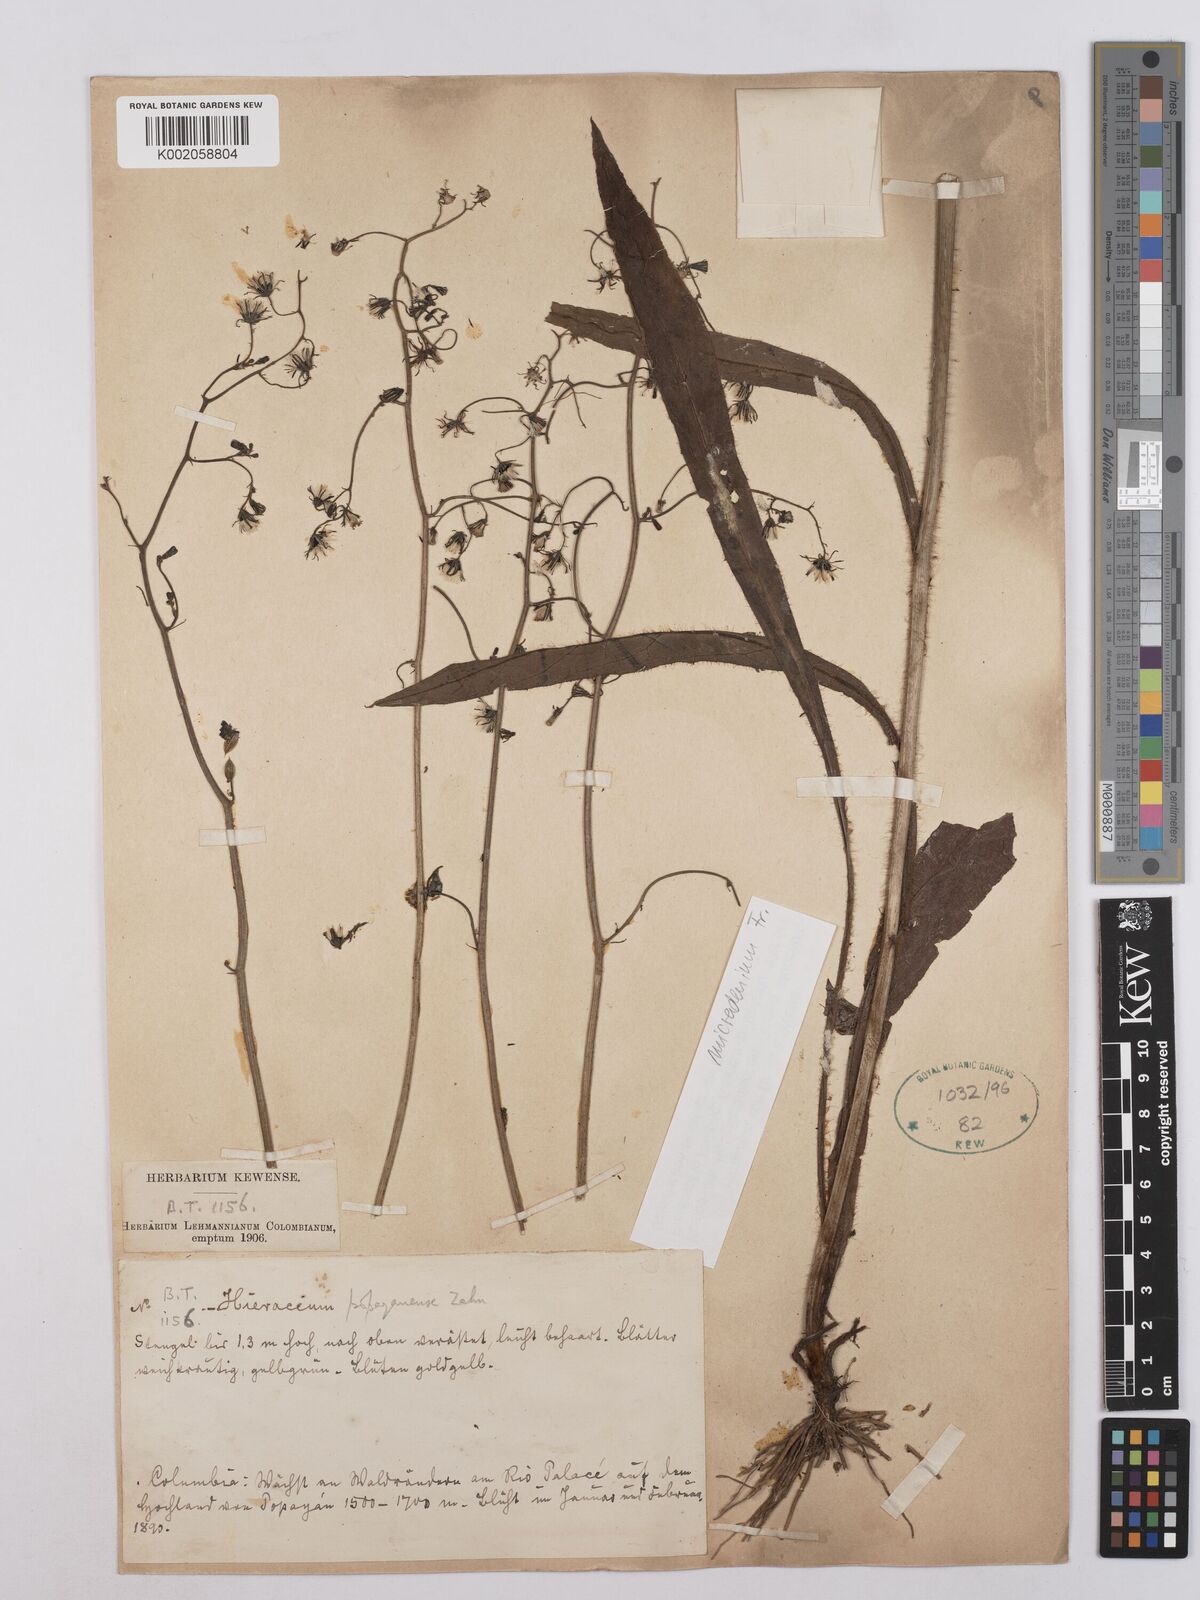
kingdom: Plantae
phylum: Tracheophyta
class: Magnoliopsida
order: Asterales
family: Asteraceae
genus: Hieracium
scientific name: Hieracium popayanense
